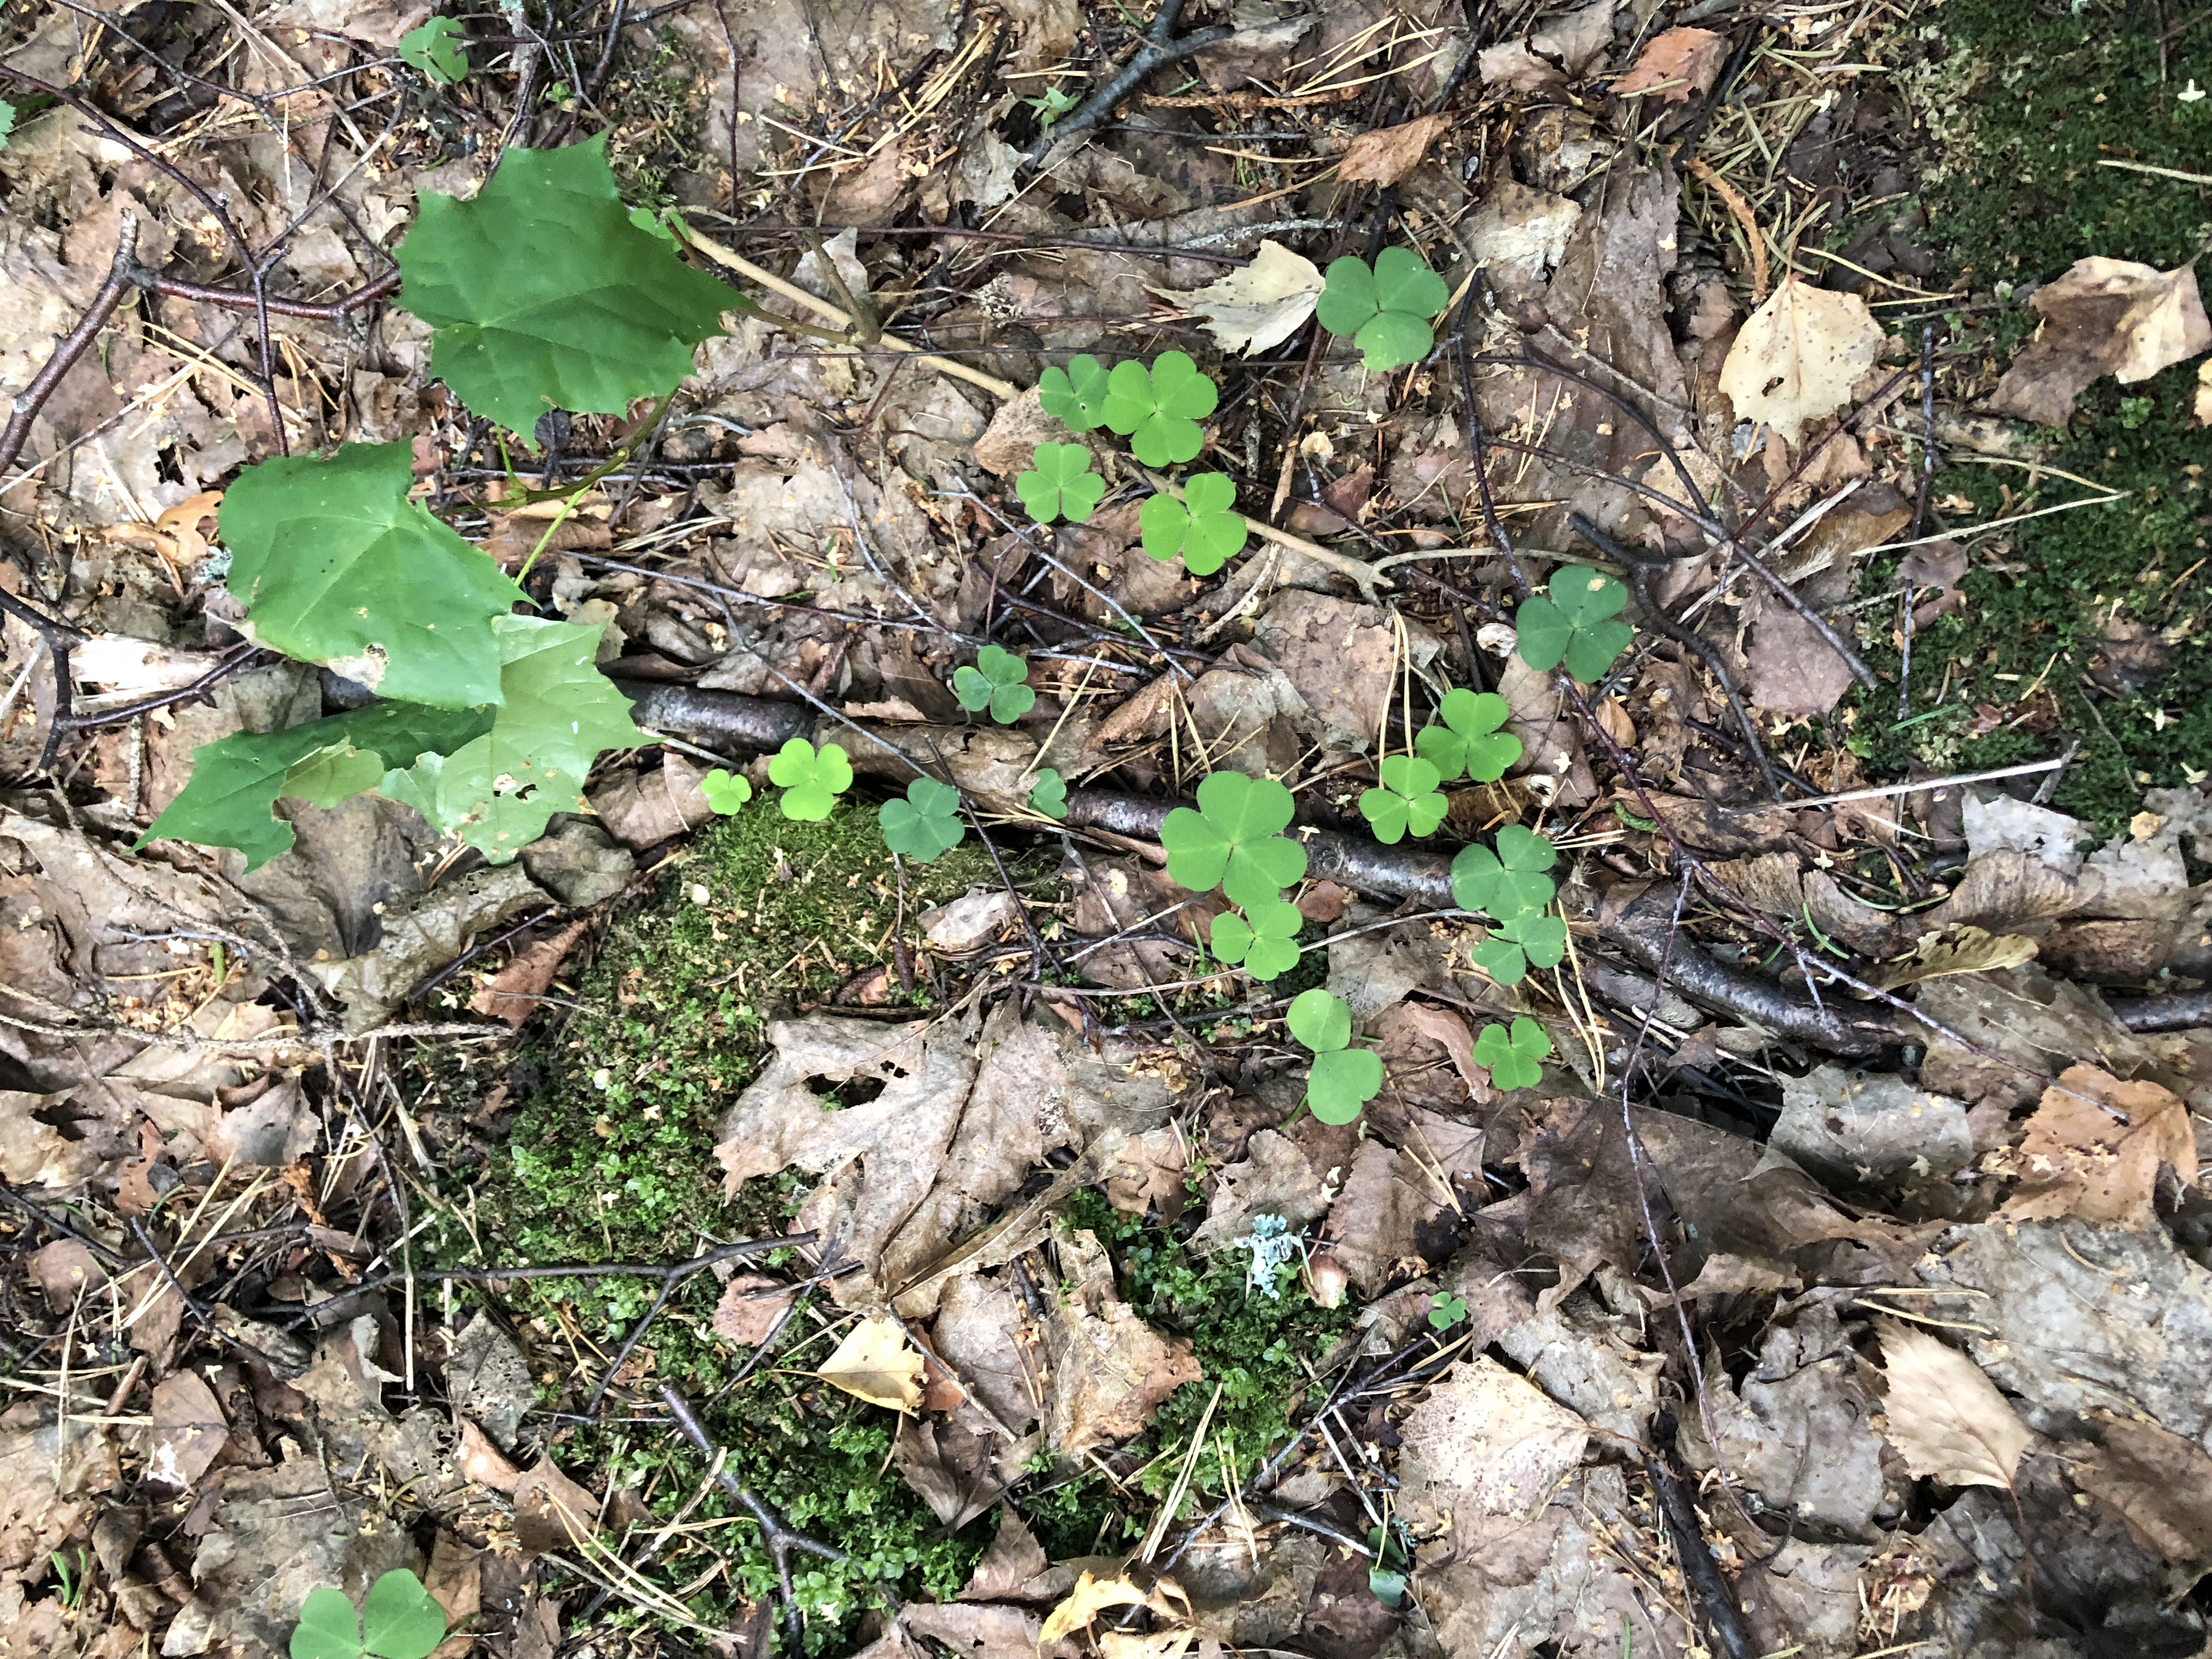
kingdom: Plantae
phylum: Tracheophyta
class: Magnoliopsida
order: Oxalidales
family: Oxalidaceae
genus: Oxalis
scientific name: Oxalis acetosella
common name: Wood-sorrel
